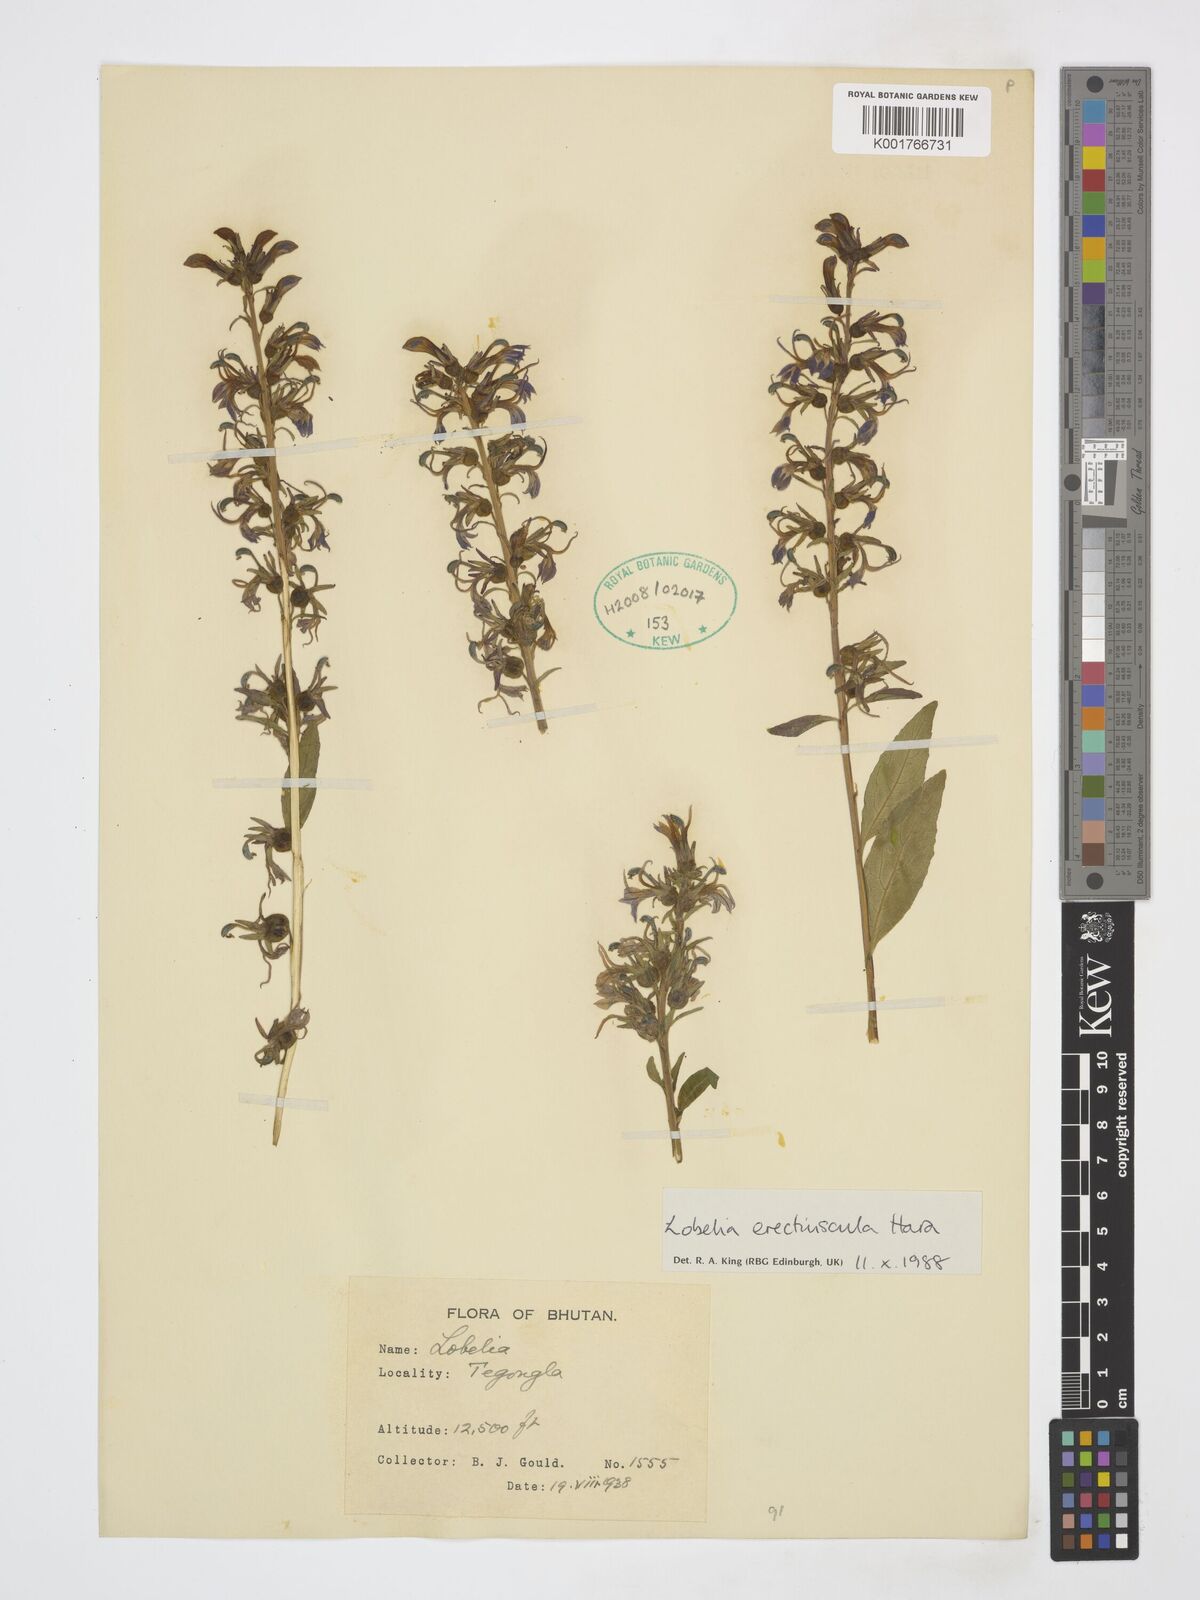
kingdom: Plantae
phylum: Tracheophyta
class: Magnoliopsida
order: Asterales
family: Campanulaceae
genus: Lobelia
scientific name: Lobelia erectiuscula
